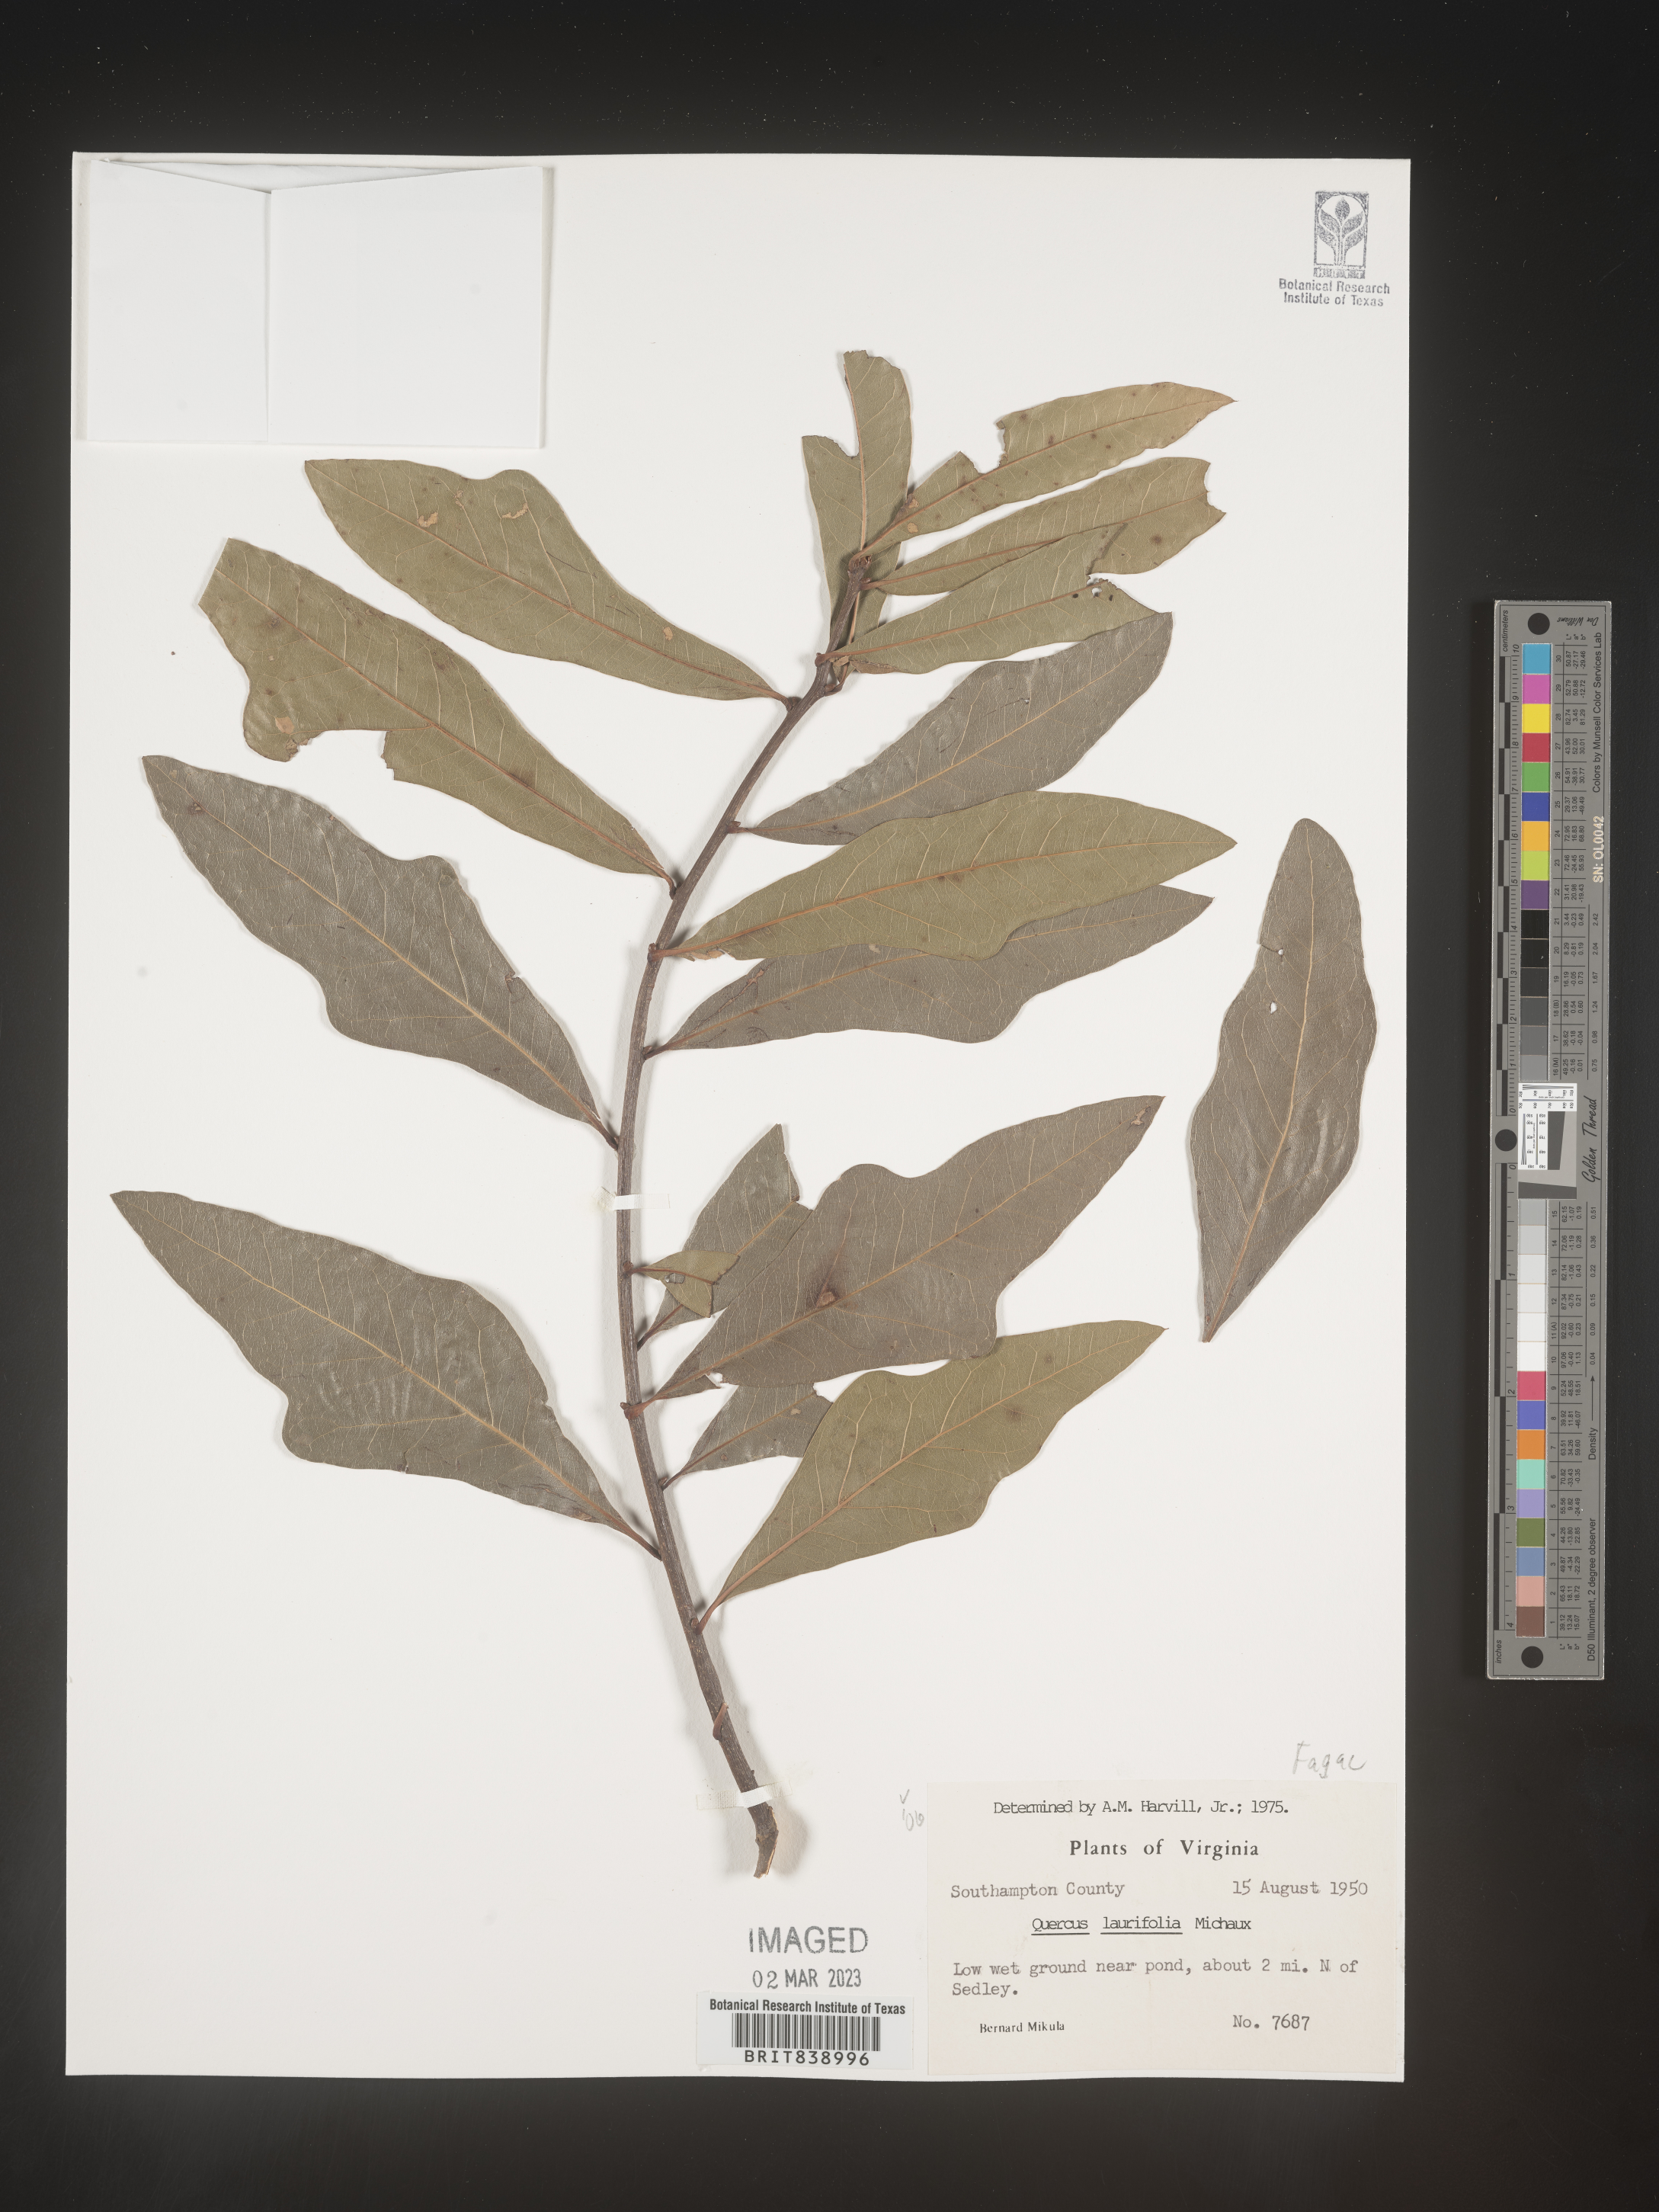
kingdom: Plantae
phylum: Tracheophyta
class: Magnoliopsida
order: Fagales
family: Fagaceae
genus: Quercus
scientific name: Quercus laurifolia
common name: Swamp laurel oak
